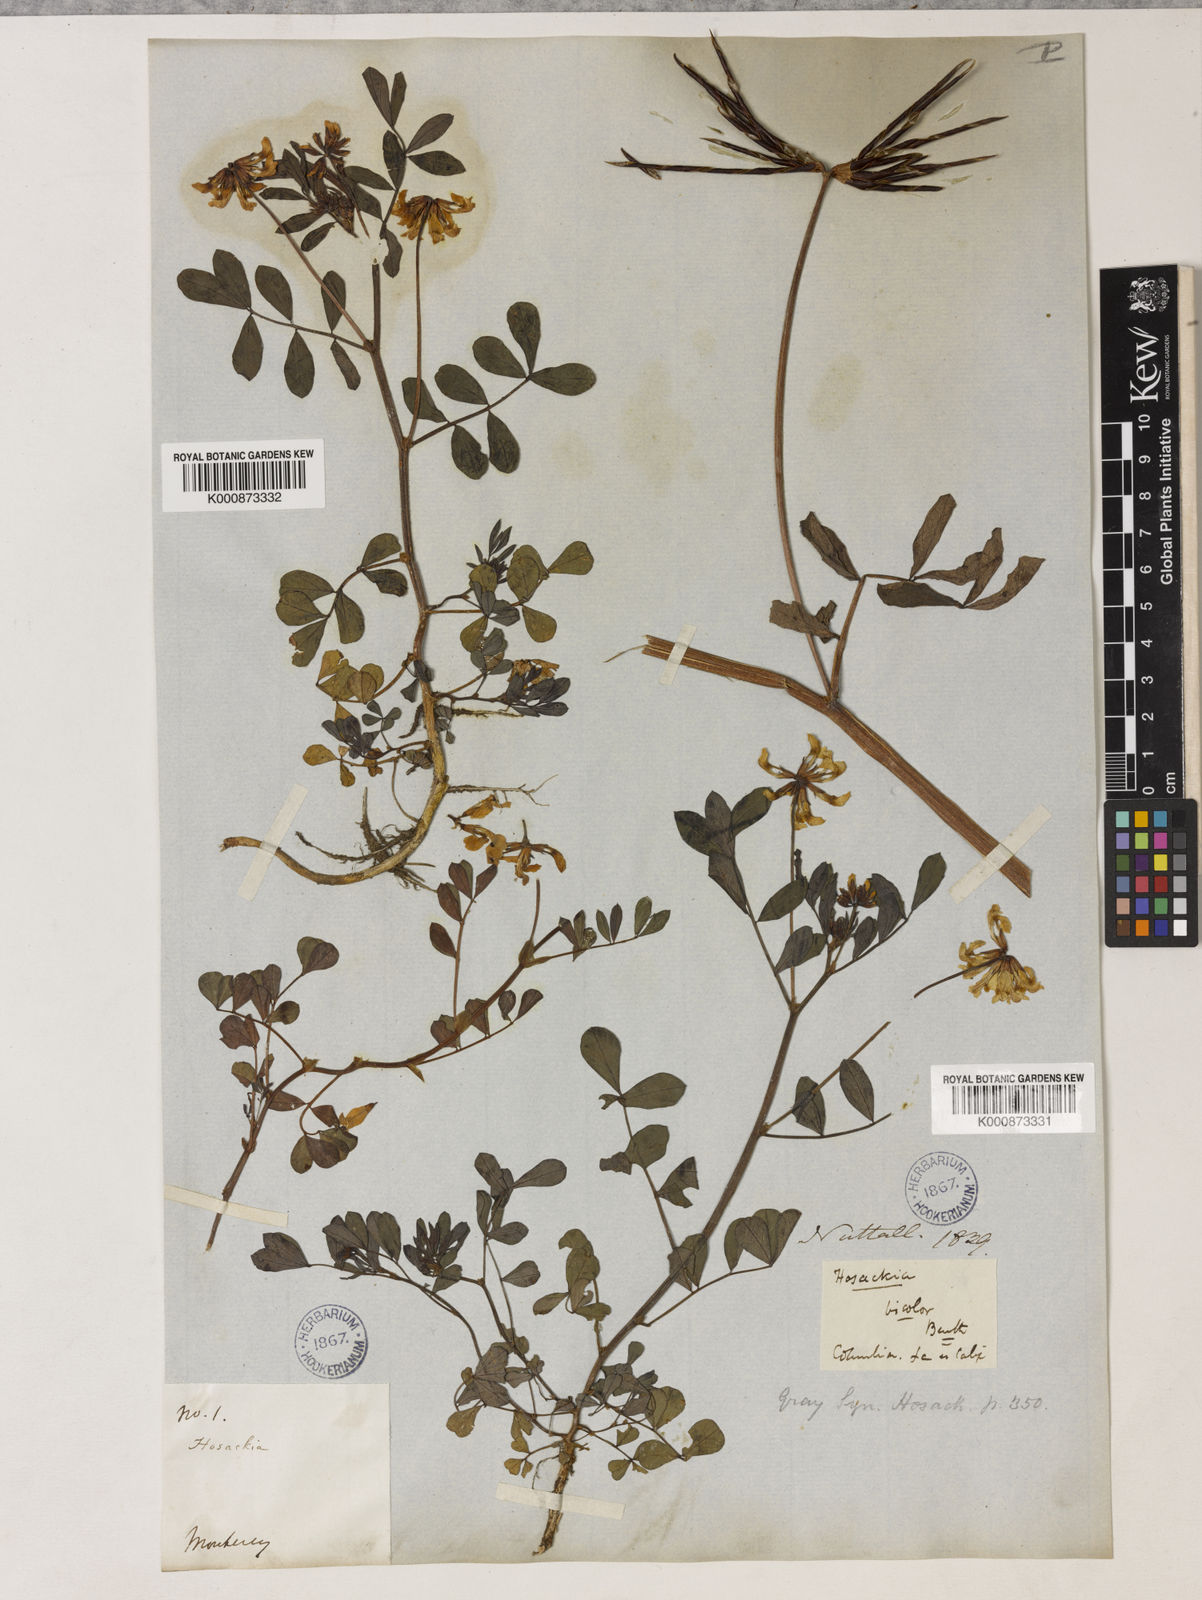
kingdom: Plantae
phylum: Tracheophyta
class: Magnoliopsida
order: Fabales
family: Fabaceae
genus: Hosackia
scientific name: Hosackia pinnata
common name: Bog bird's-foot trefoil
